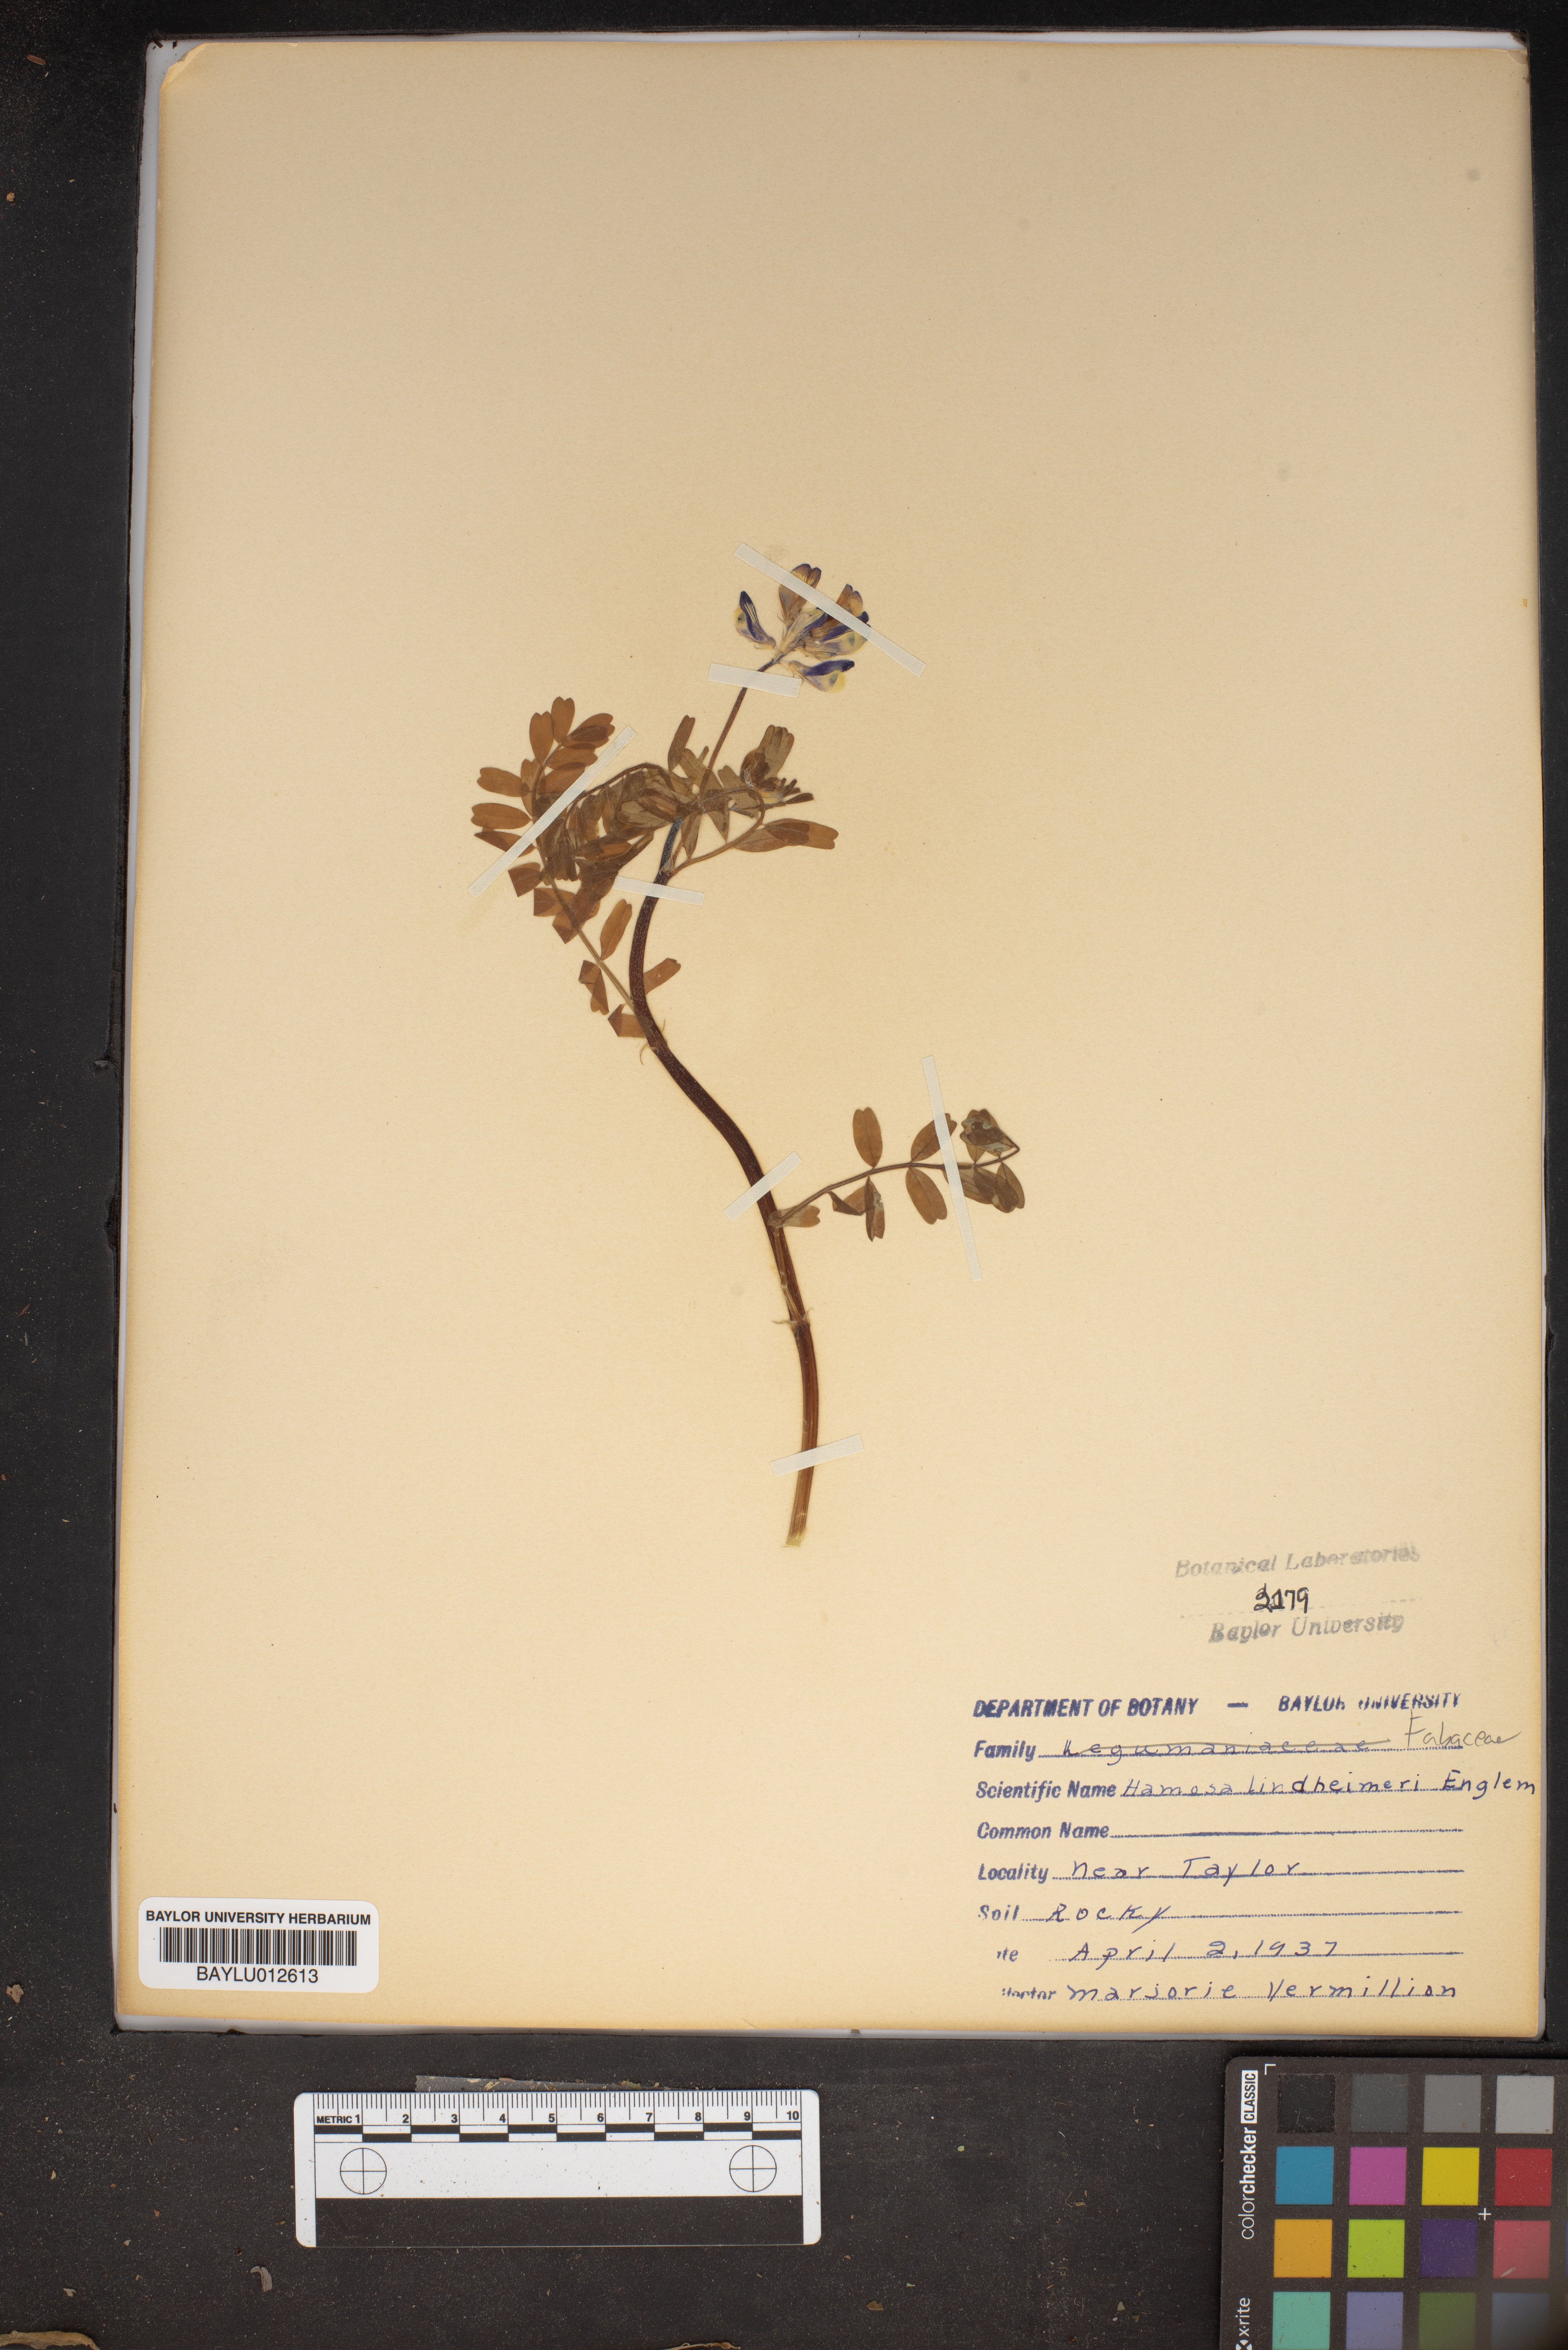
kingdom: Plantae
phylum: Tracheophyta
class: Magnoliopsida
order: Fabales
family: Fabaceae
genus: Astragalus
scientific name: Astragalus lindheimeri
